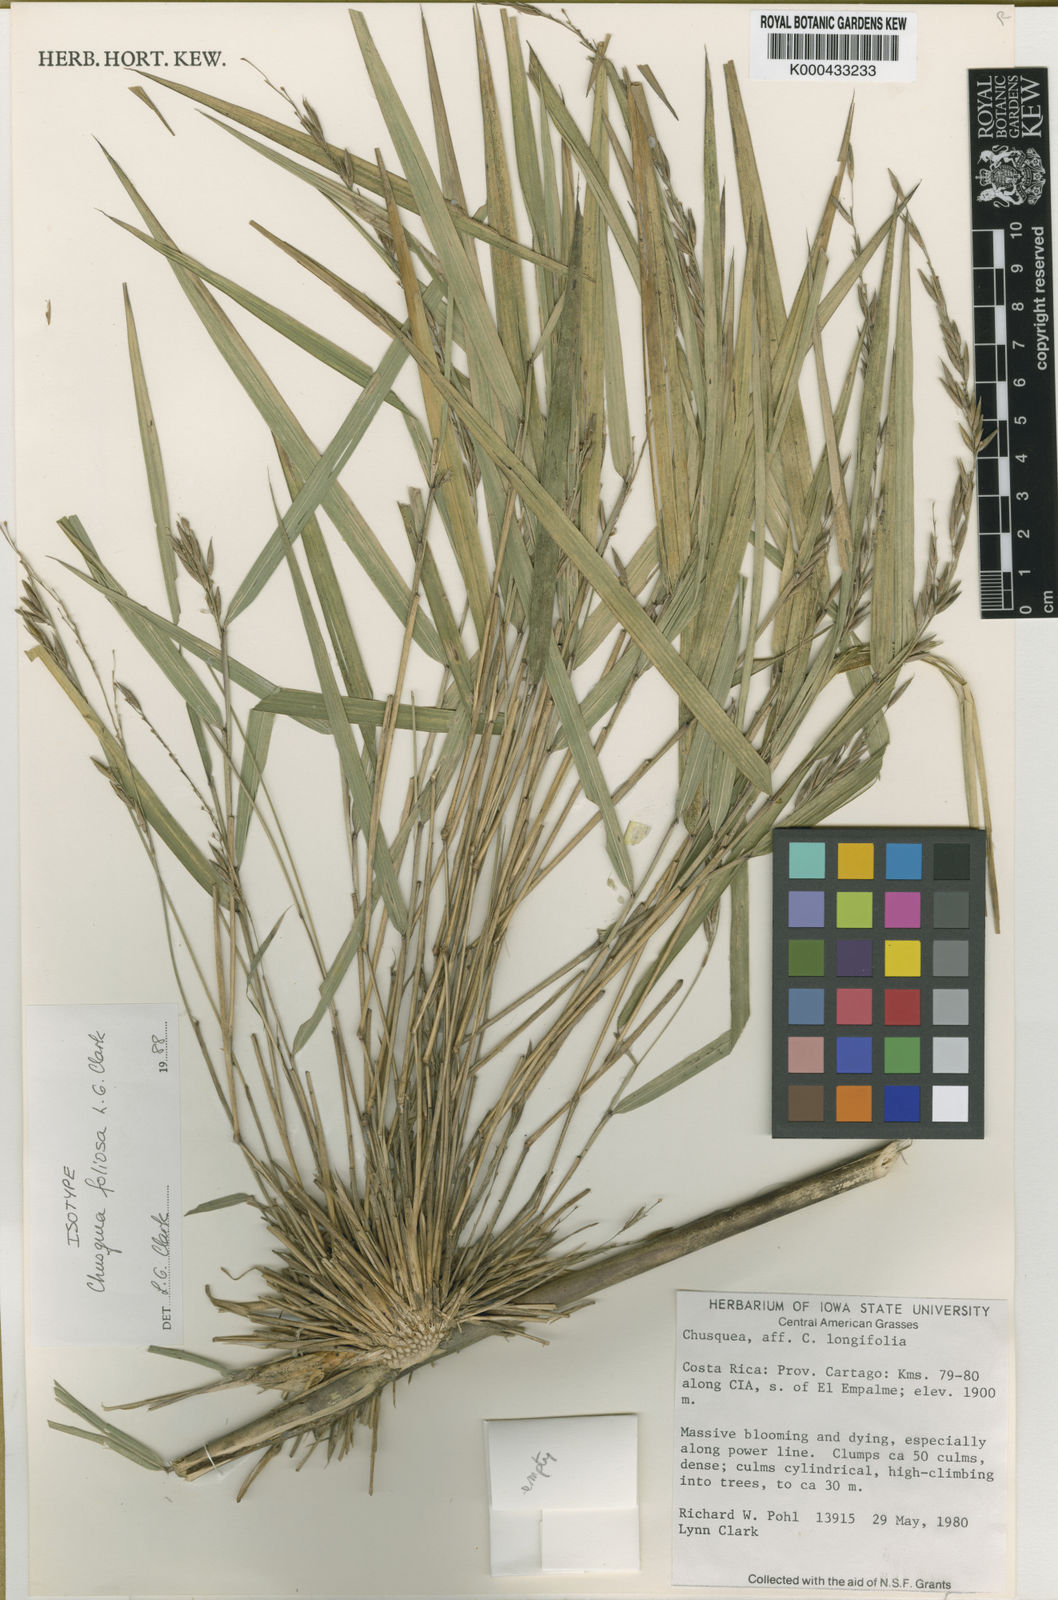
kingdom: Plantae
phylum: Tracheophyta
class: Liliopsida
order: Poales
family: Poaceae
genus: Chusquea
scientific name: Chusquea foliosa
